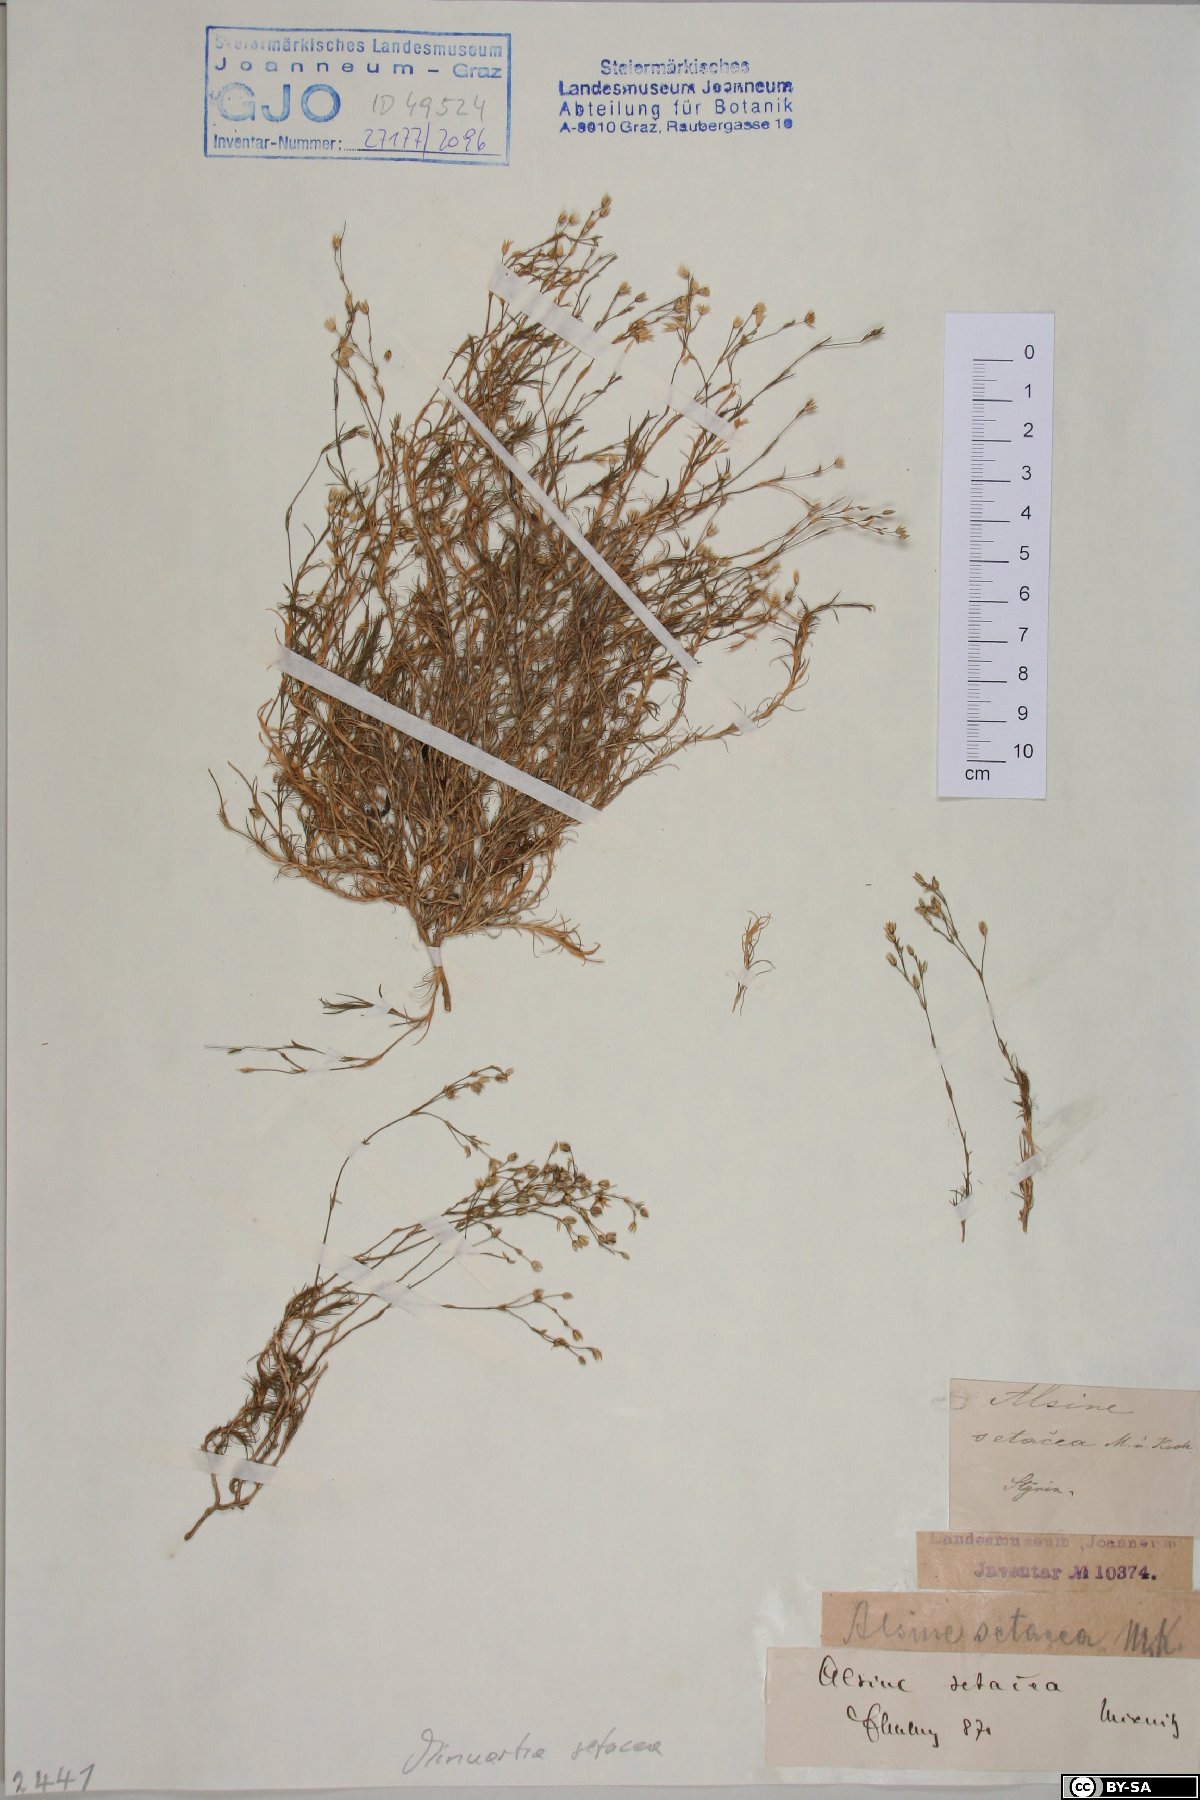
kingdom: Plantae
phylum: Tracheophyta
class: Magnoliopsida
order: Caryophyllales
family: Caryophyllaceae
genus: Minuartia
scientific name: Minuartia setacea
